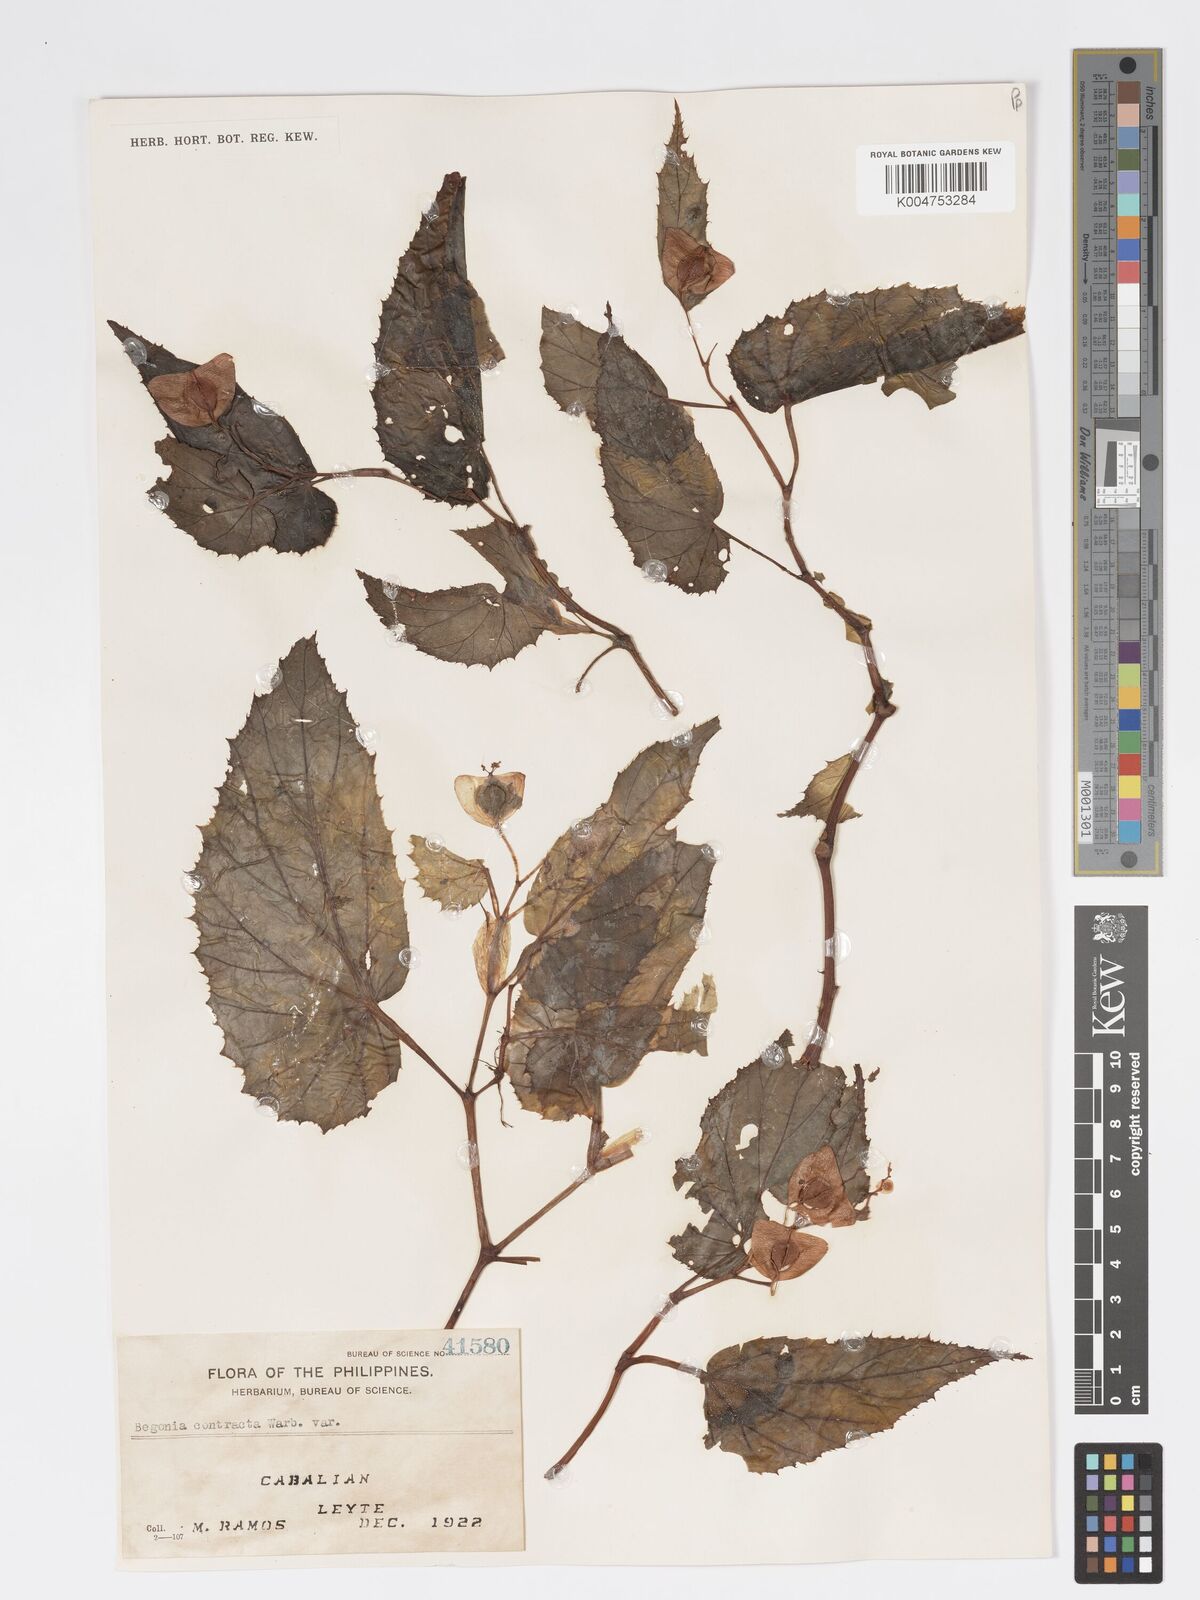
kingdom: Plantae
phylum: Tracheophyta
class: Magnoliopsida
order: Cucurbitales
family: Begoniaceae
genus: Begonia
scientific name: Begonia contracta
